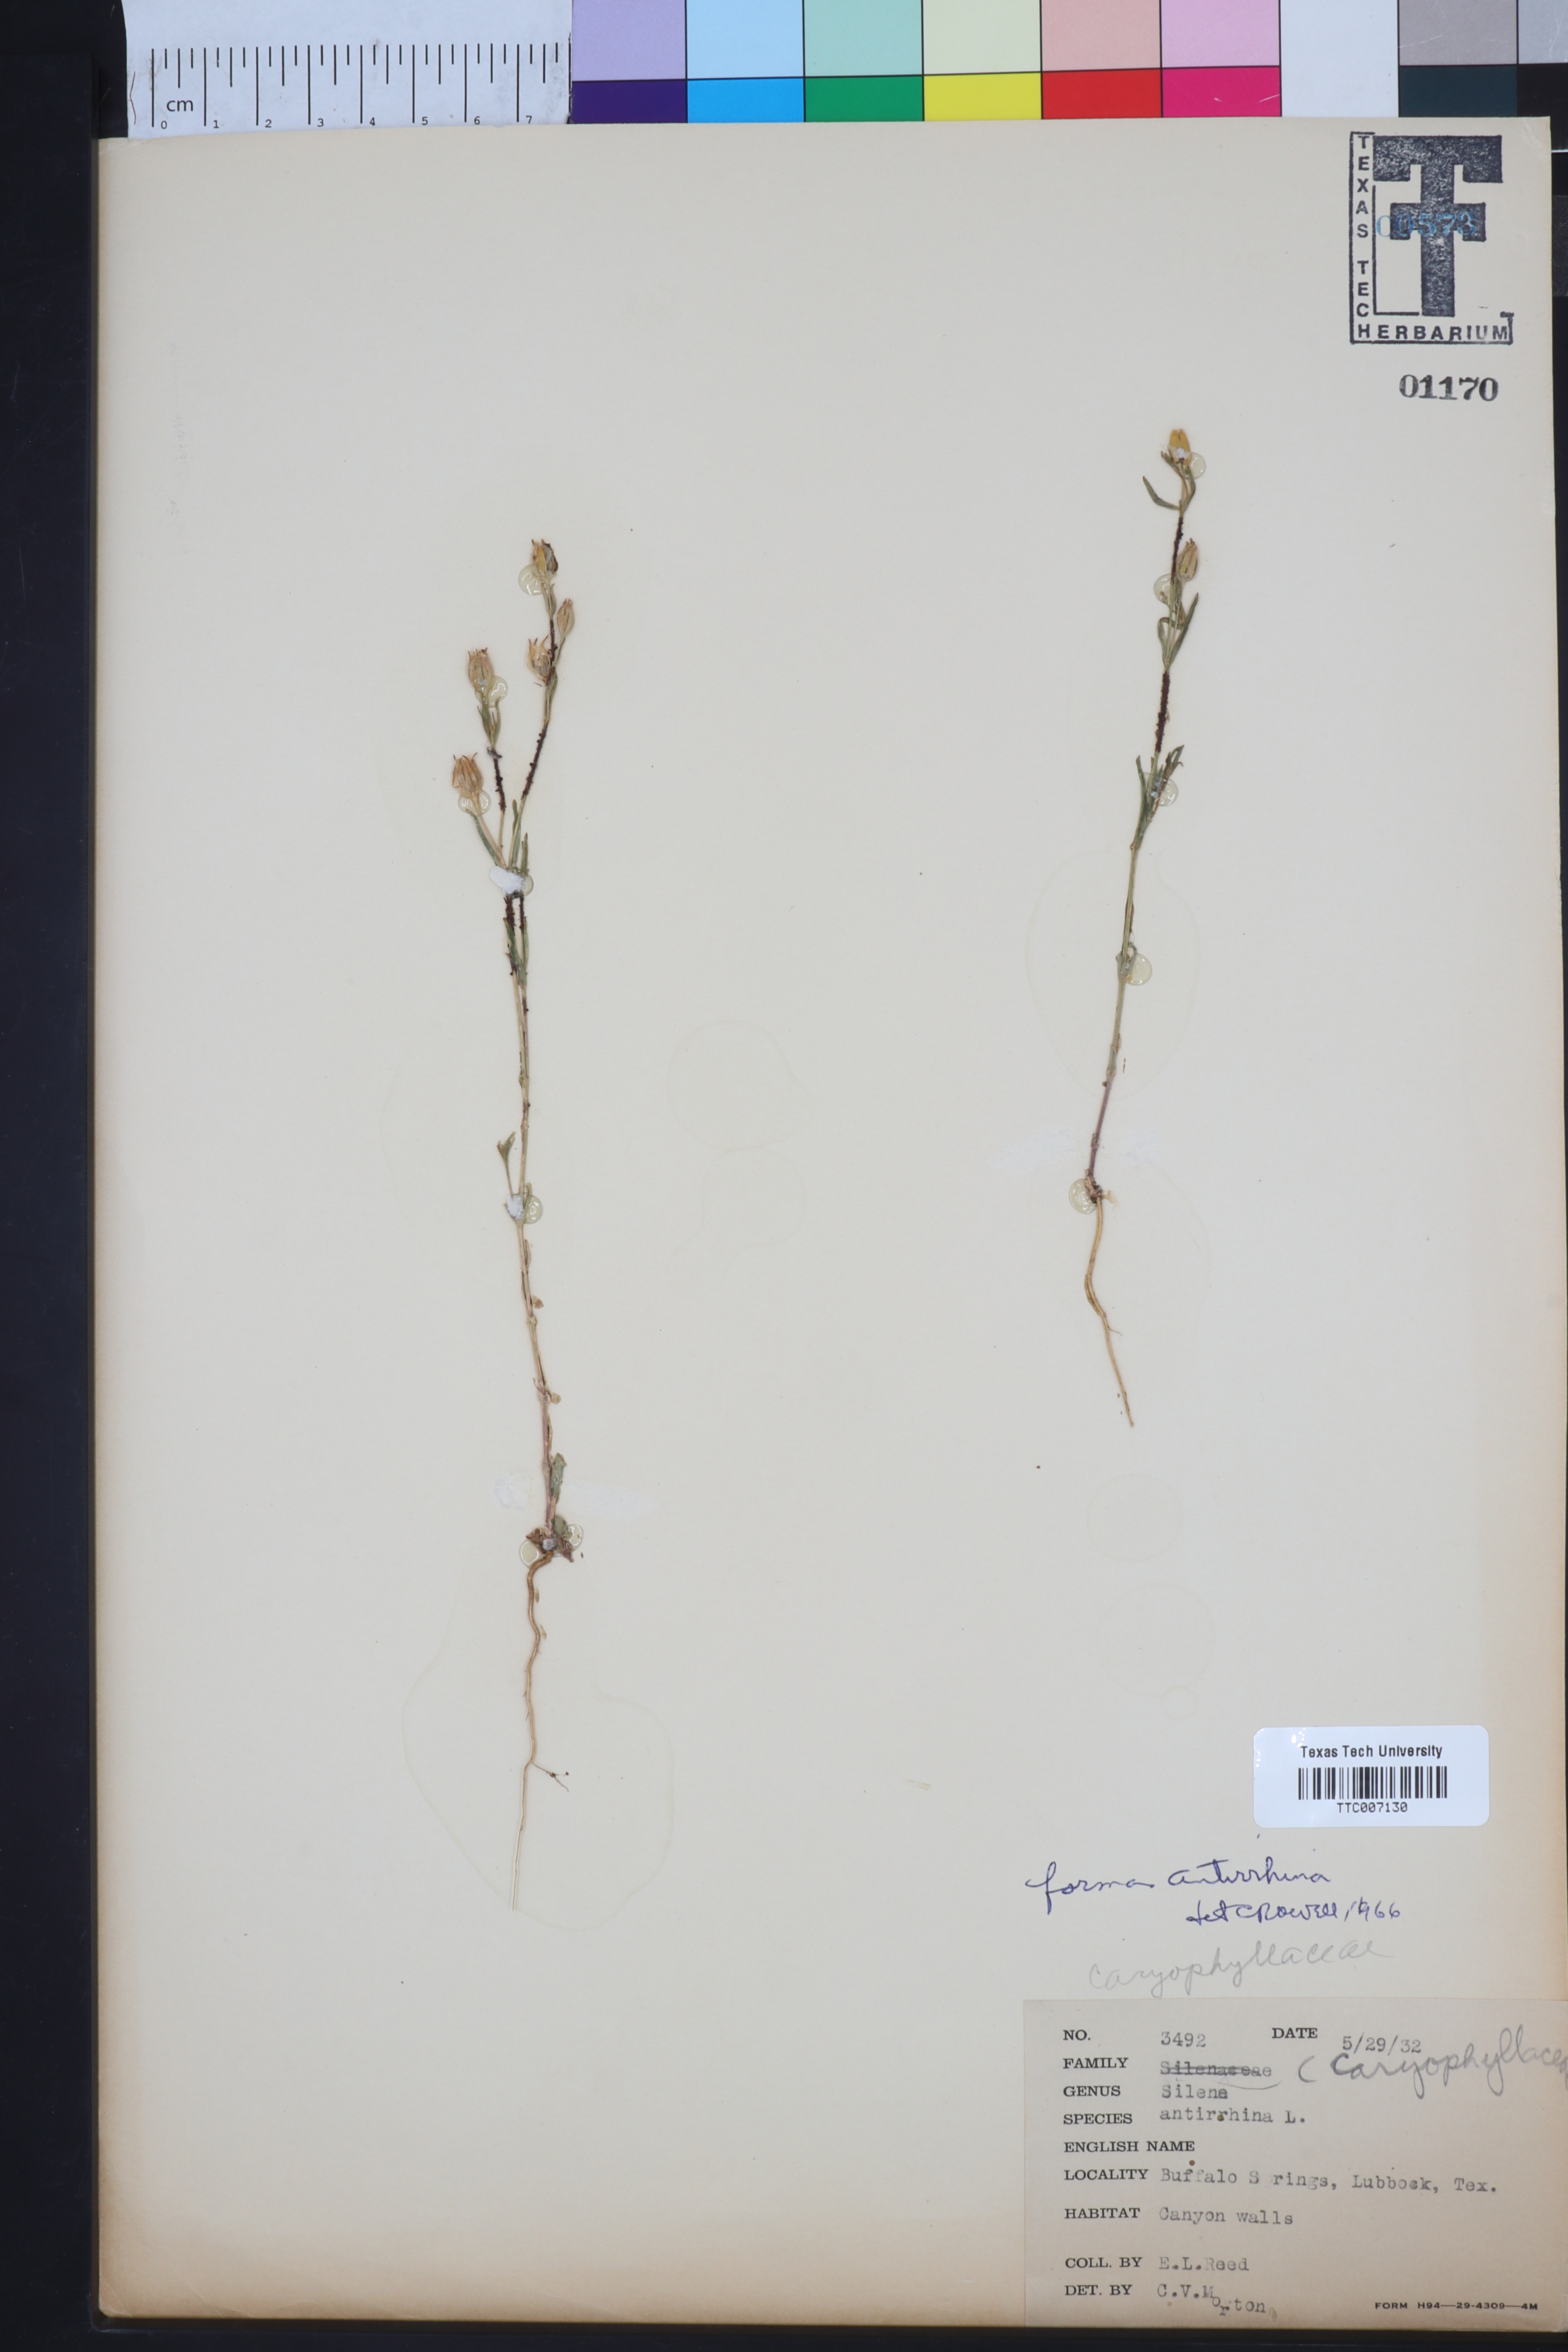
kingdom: Plantae
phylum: Tracheophyta
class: Magnoliopsida
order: Caryophyllales
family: Caryophyllaceae
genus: Silene
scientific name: Silene antirrhina
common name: Sleepy catchfly
